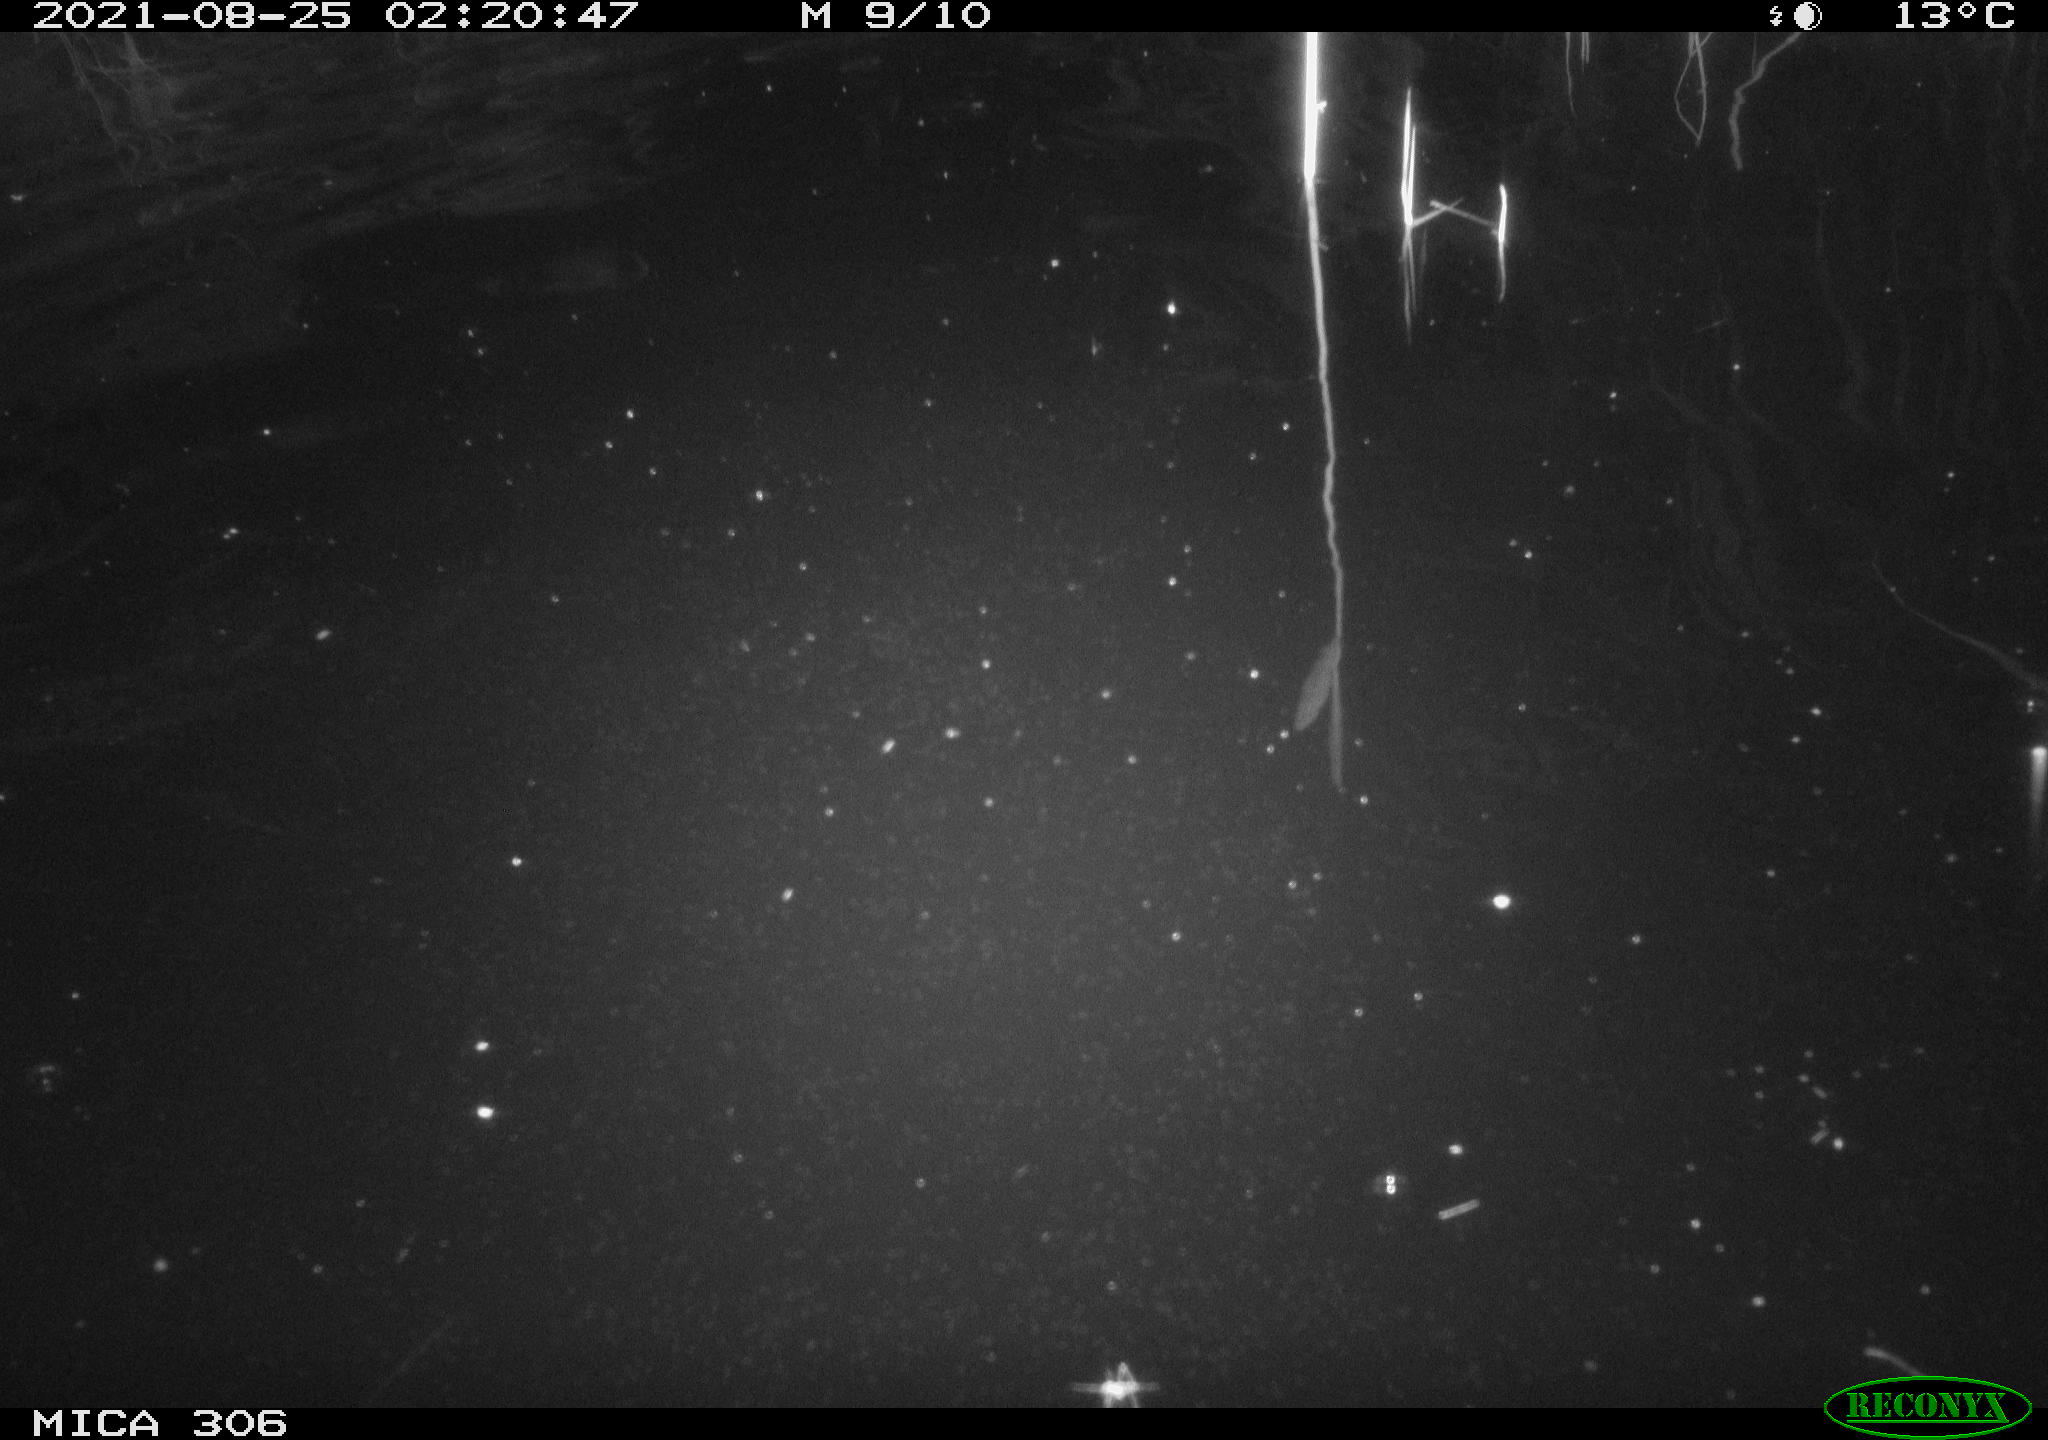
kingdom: Animalia
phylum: Chordata
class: Mammalia
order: Rodentia
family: Muridae
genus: Rattus
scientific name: Rattus norvegicus
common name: Brown rat
